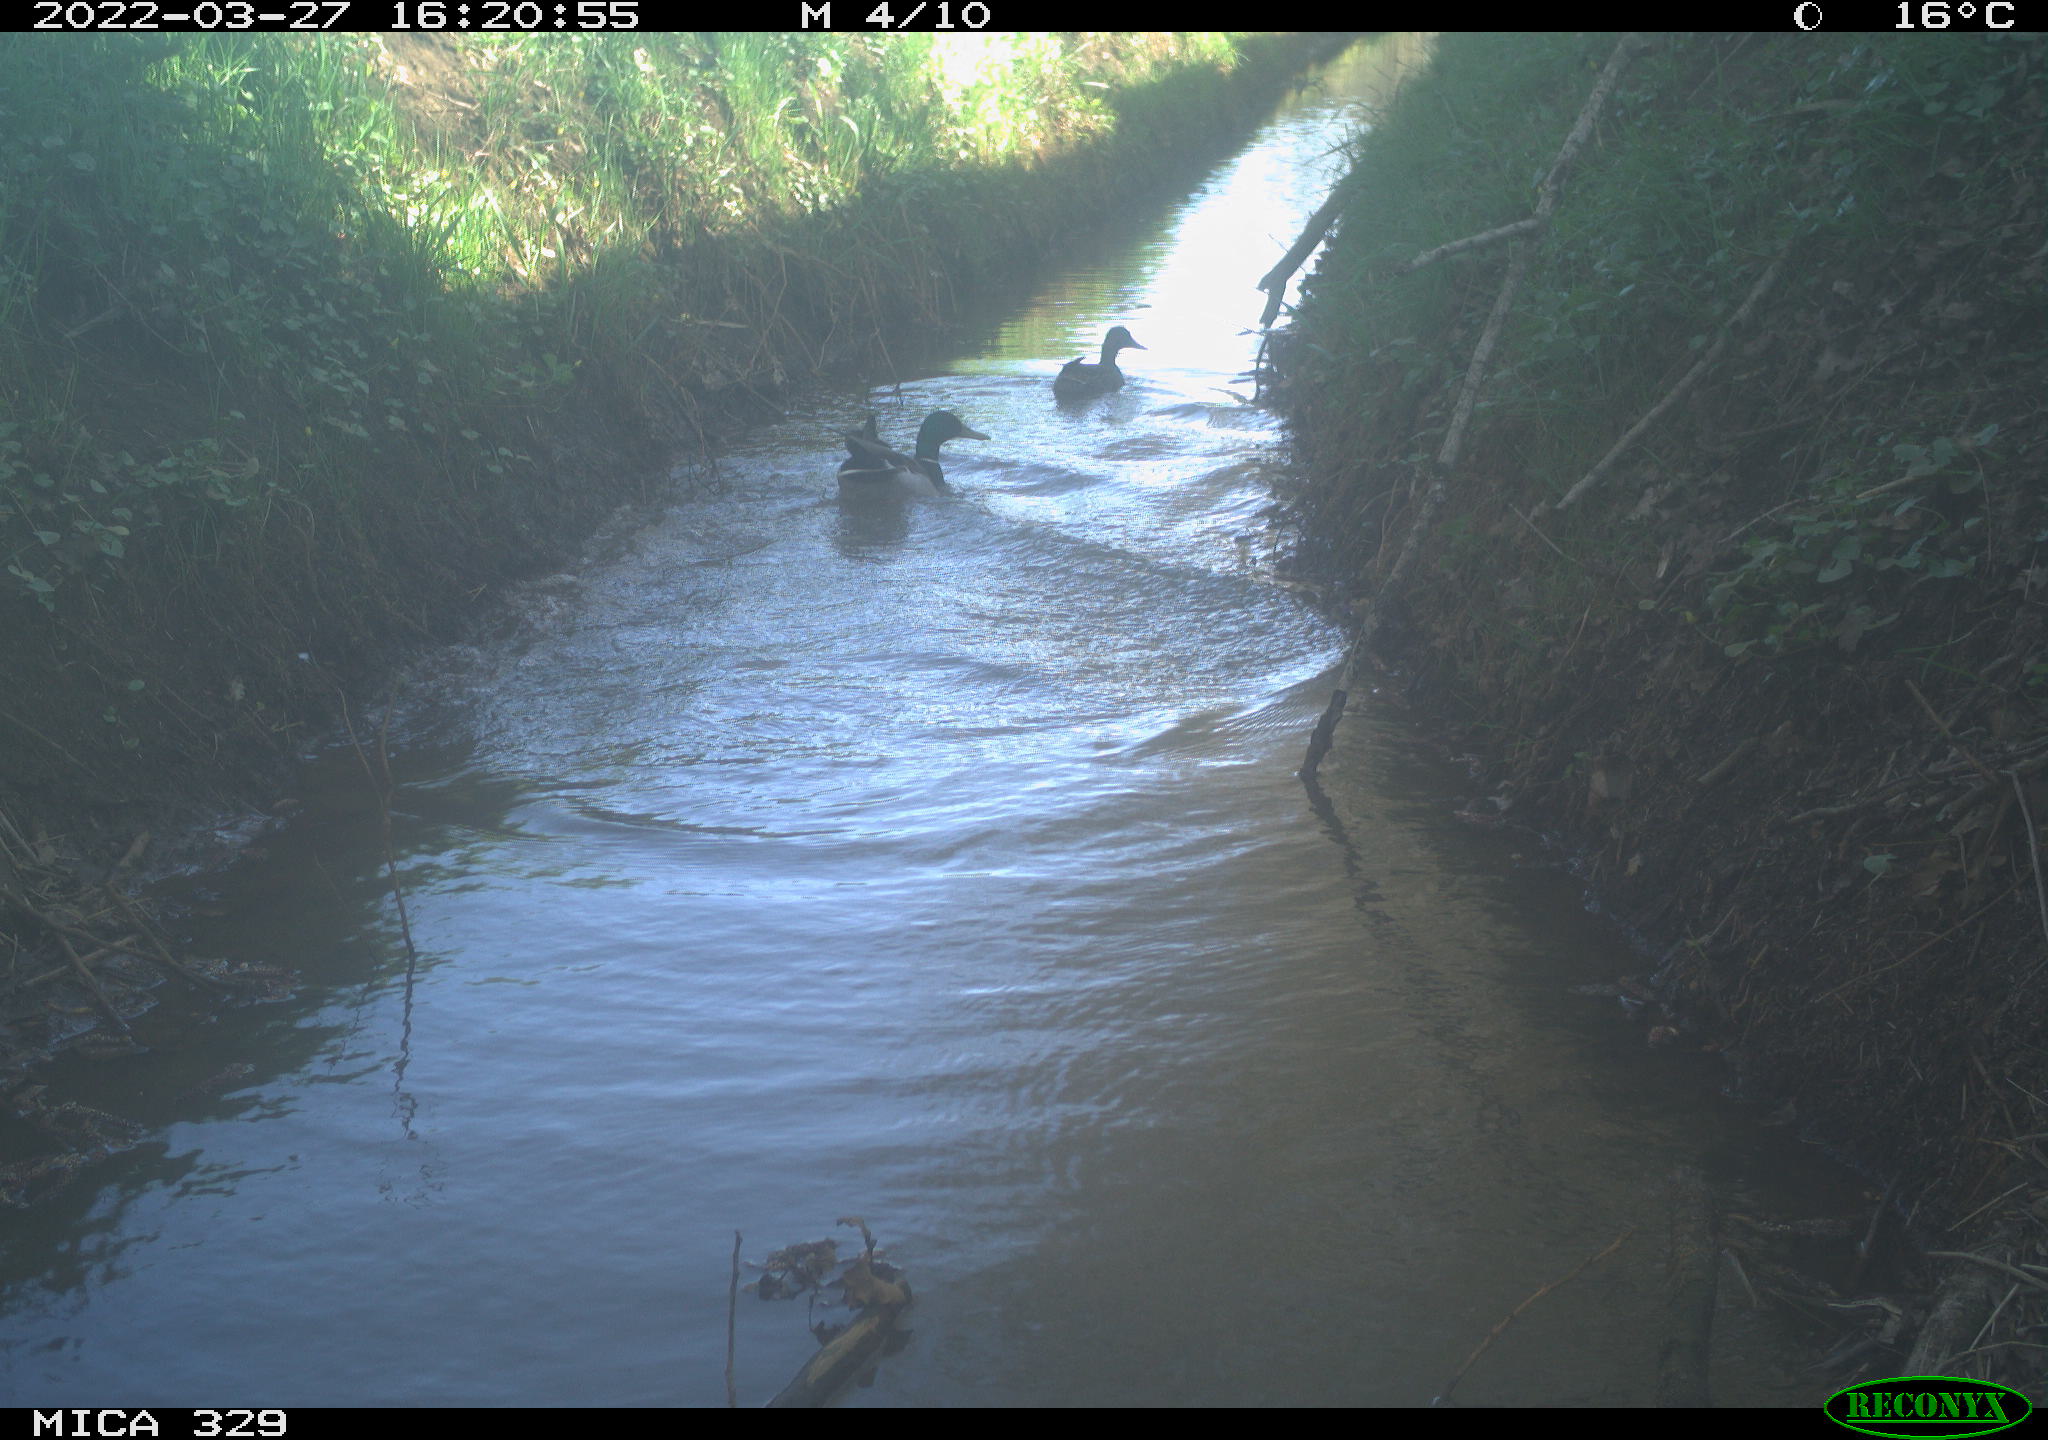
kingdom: Animalia
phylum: Chordata
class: Aves
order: Anseriformes
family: Anatidae
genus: Anas
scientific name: Anas platyrhynchos
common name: Mallard
